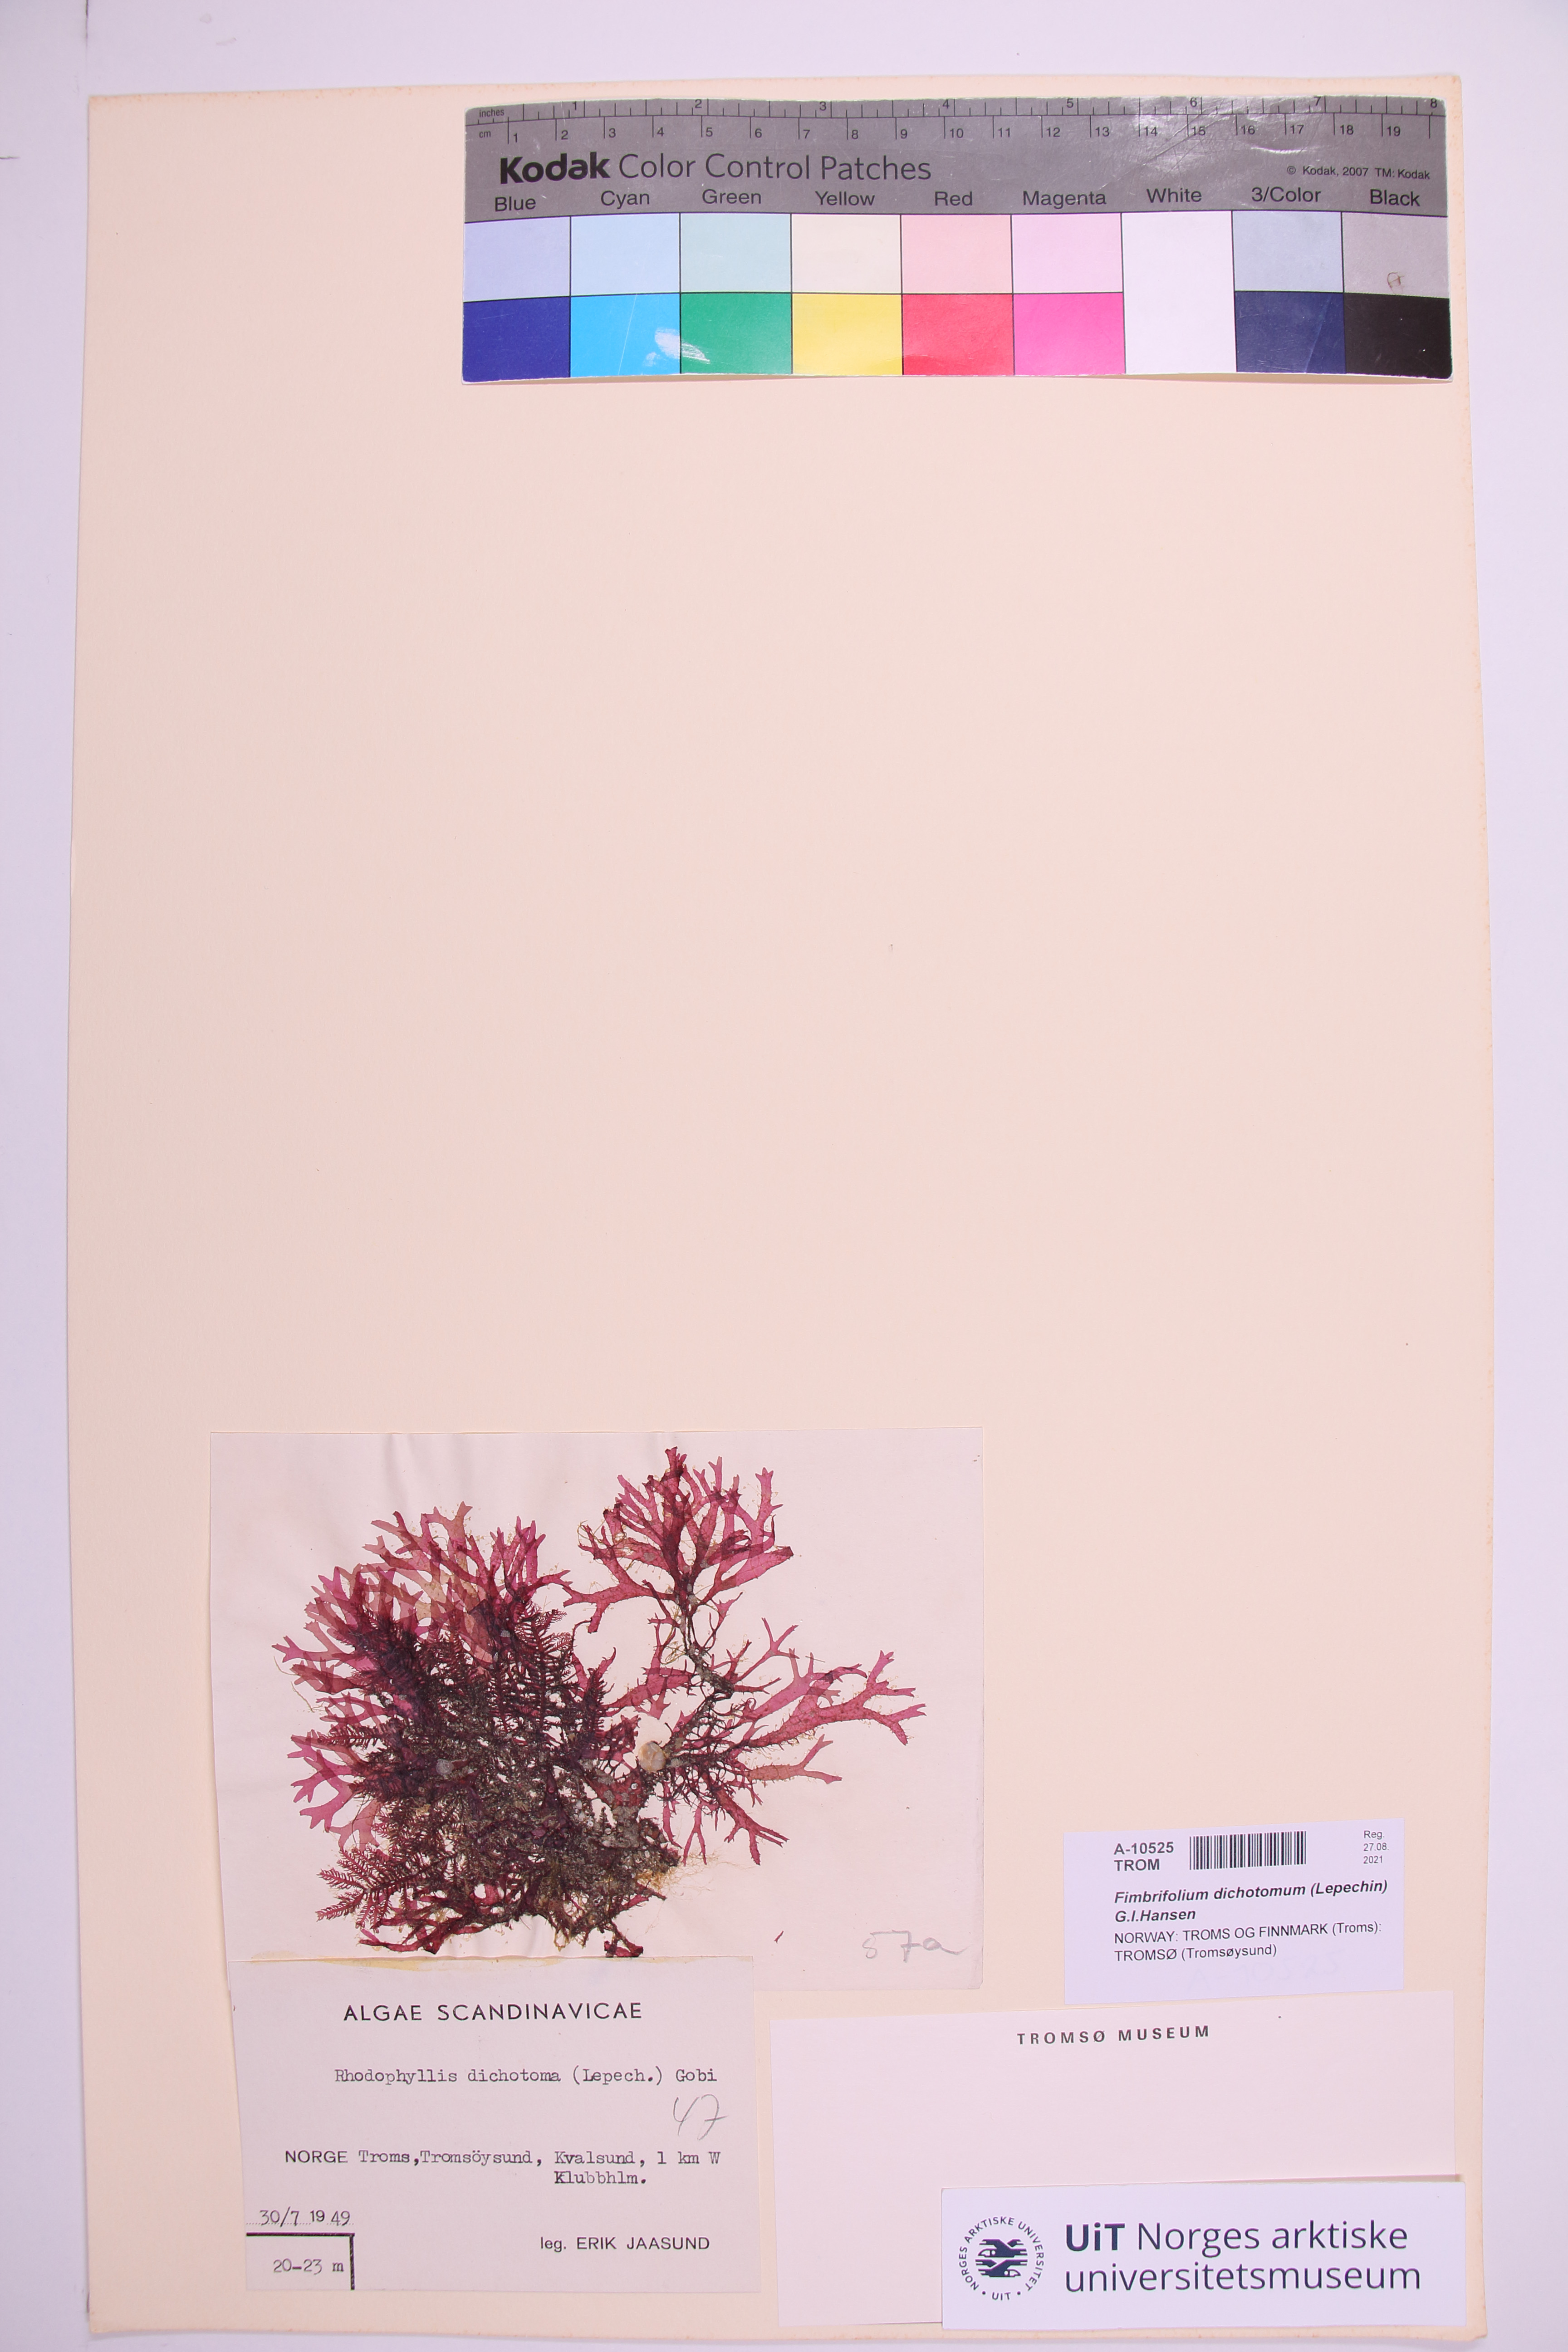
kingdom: Plantae
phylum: Rhodophyta
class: Florideophyceae
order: Gigartinales
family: Cystocloniaceae
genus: Fimbrifolium
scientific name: Fimbrifolium dichotomum
